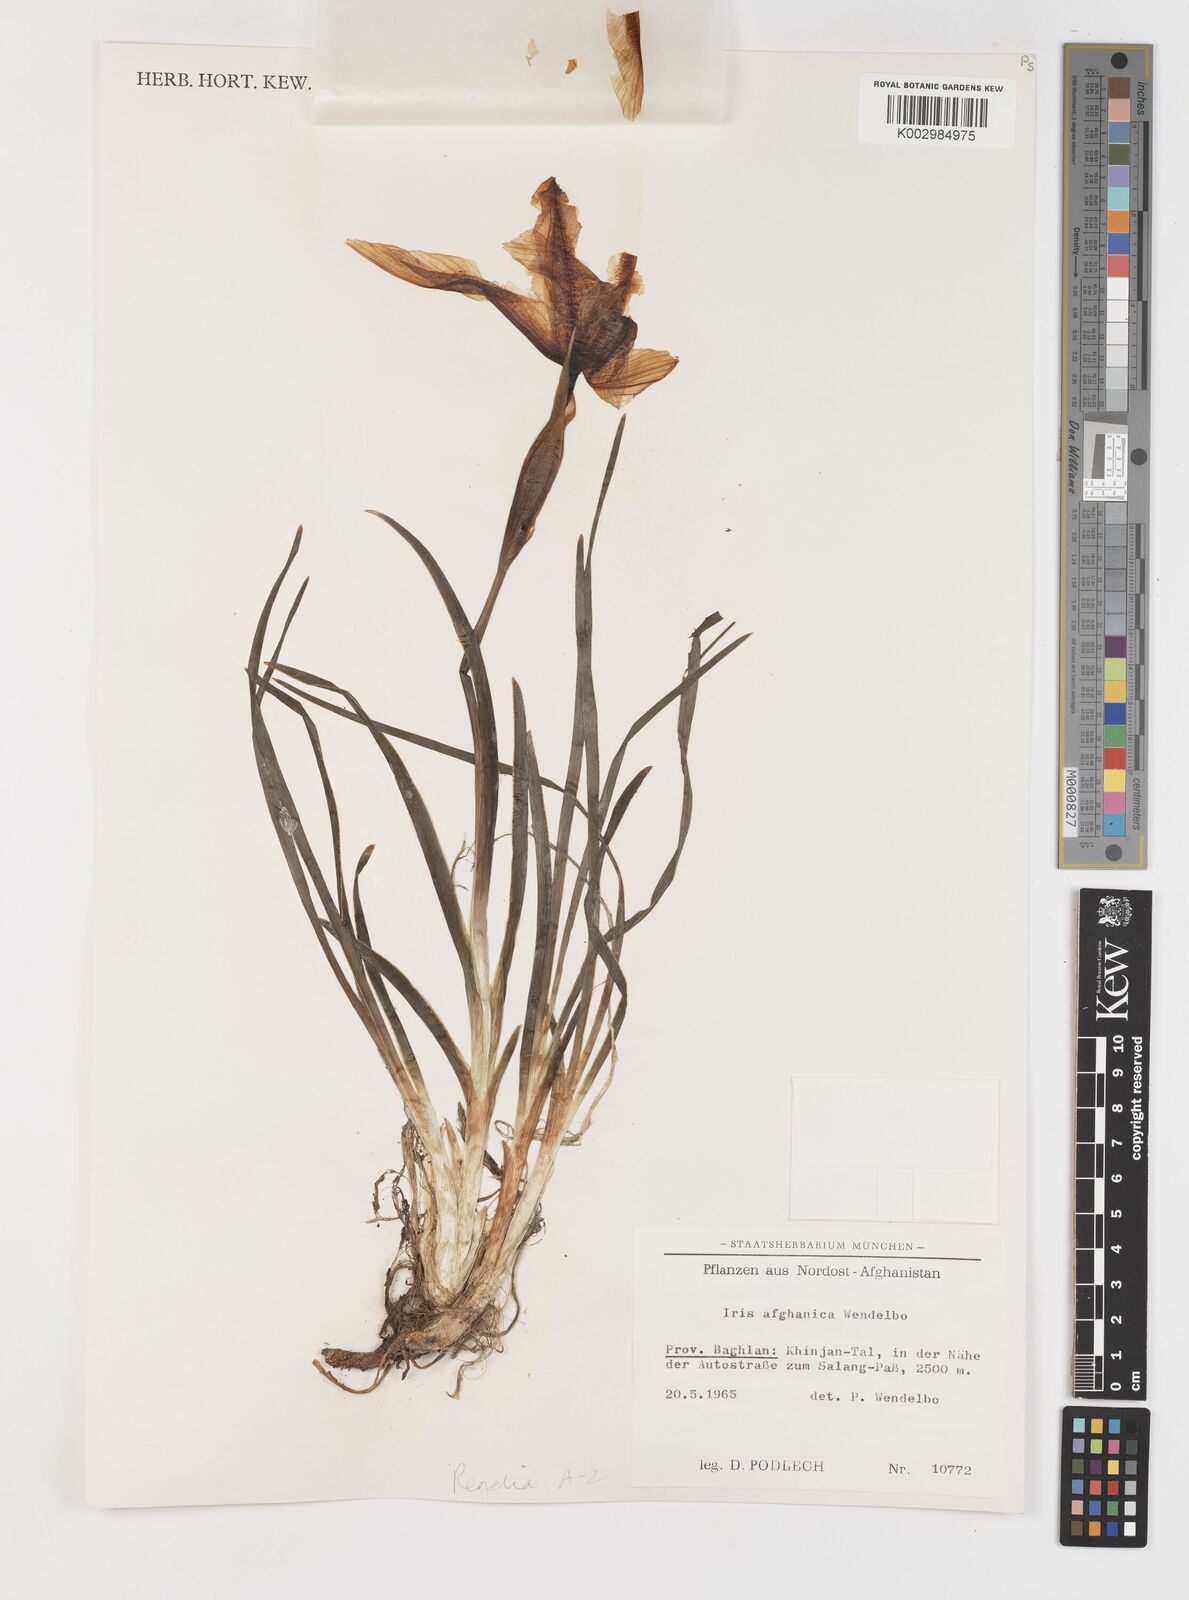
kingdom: Plantae
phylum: Tracheophyta
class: Liliopsida
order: Asparagales
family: Iridaceae
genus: Iris
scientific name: Iris afghanica
